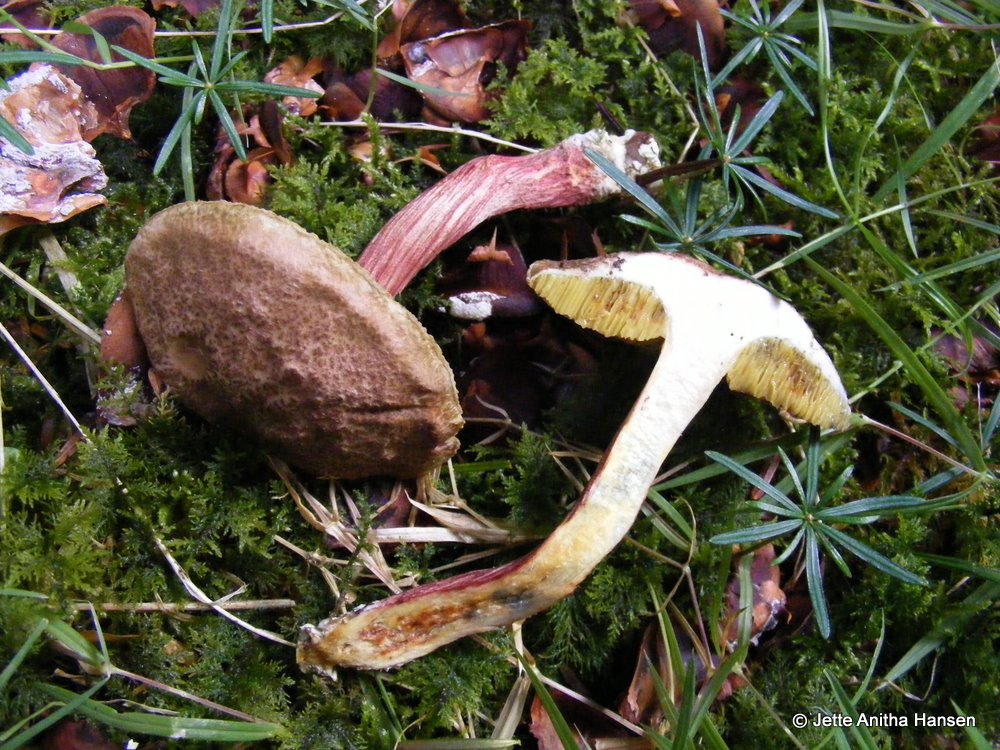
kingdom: Fungi
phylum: Basidiomycota
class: Agaricomycetes
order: Boletales
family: Boletaceae
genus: Xerocomellus
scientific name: Xerocomellus chrysenteron
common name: rødsprukken rørhat
